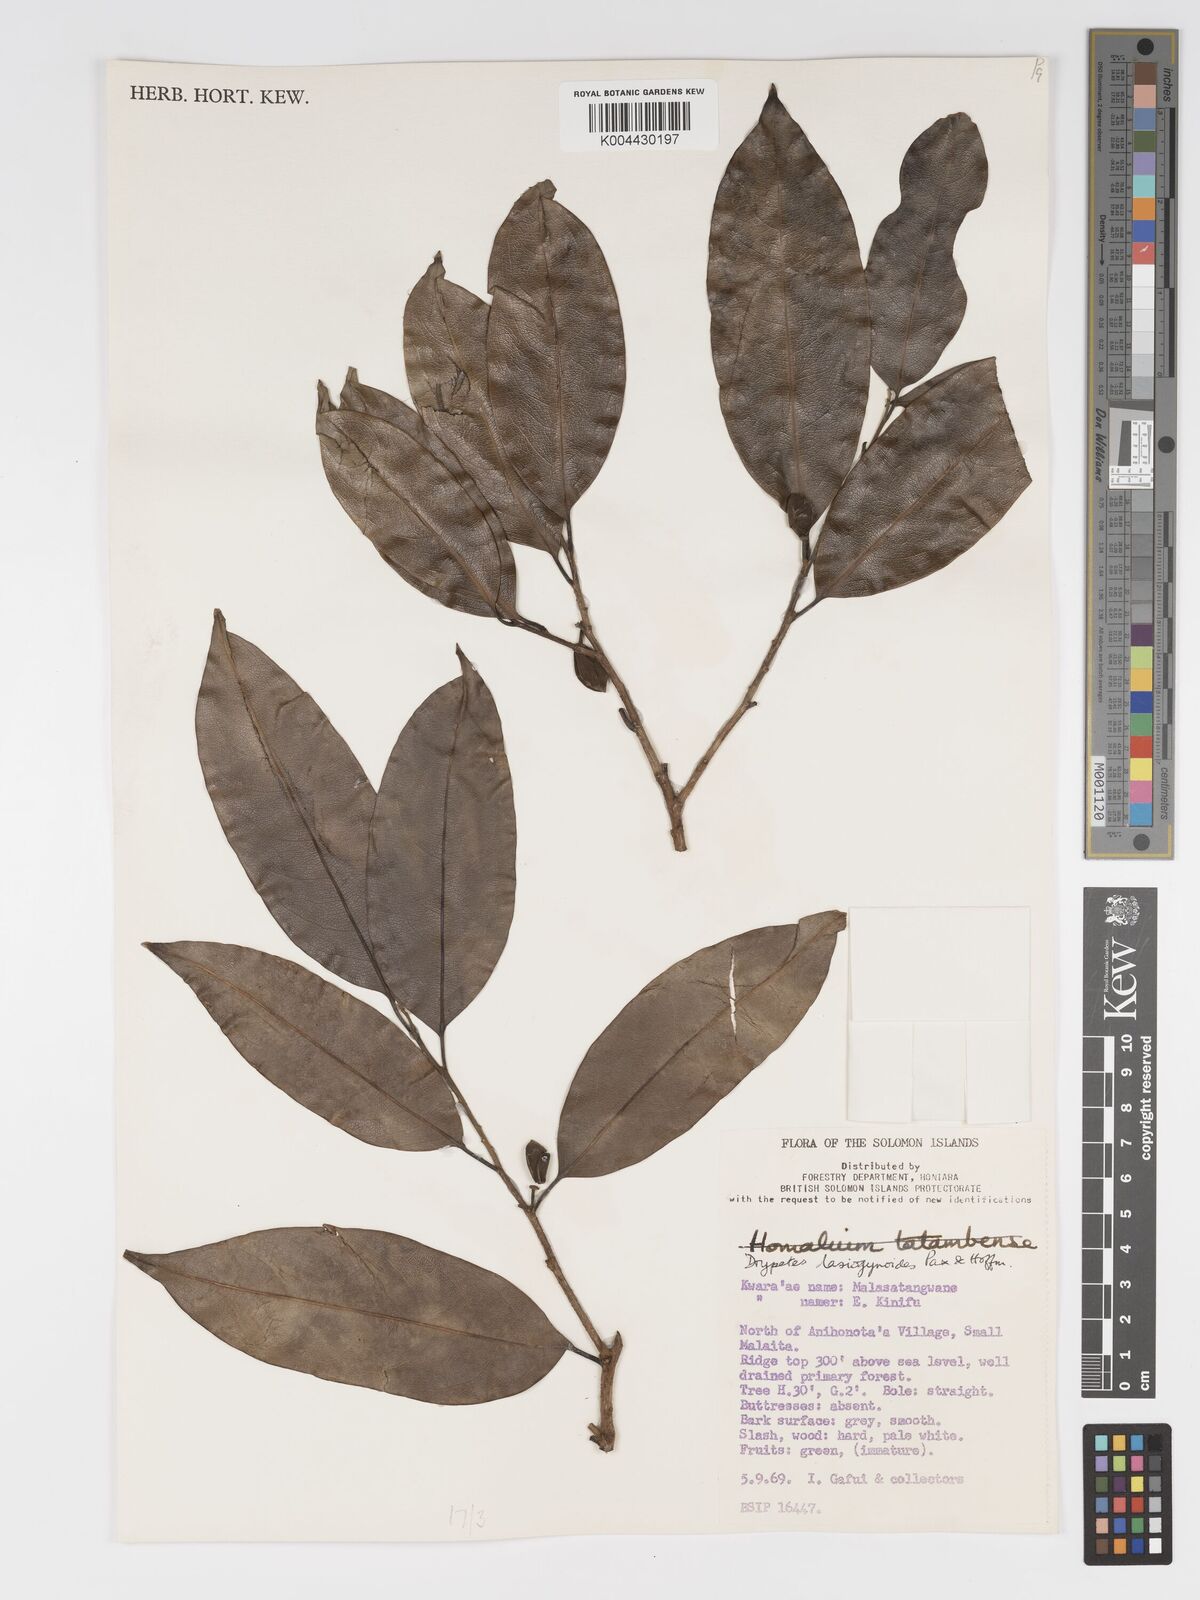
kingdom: Plantae
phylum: Tracheophyta
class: Magnoliopsida
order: Malpighiales
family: Putranjivaceae
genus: Drypetes
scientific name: Drypetes lasiogynoides
